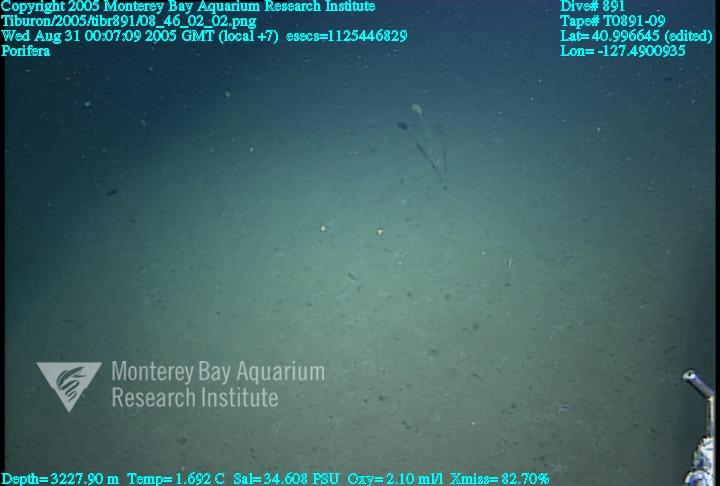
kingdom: Animalia
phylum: Porifera
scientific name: Porifera
